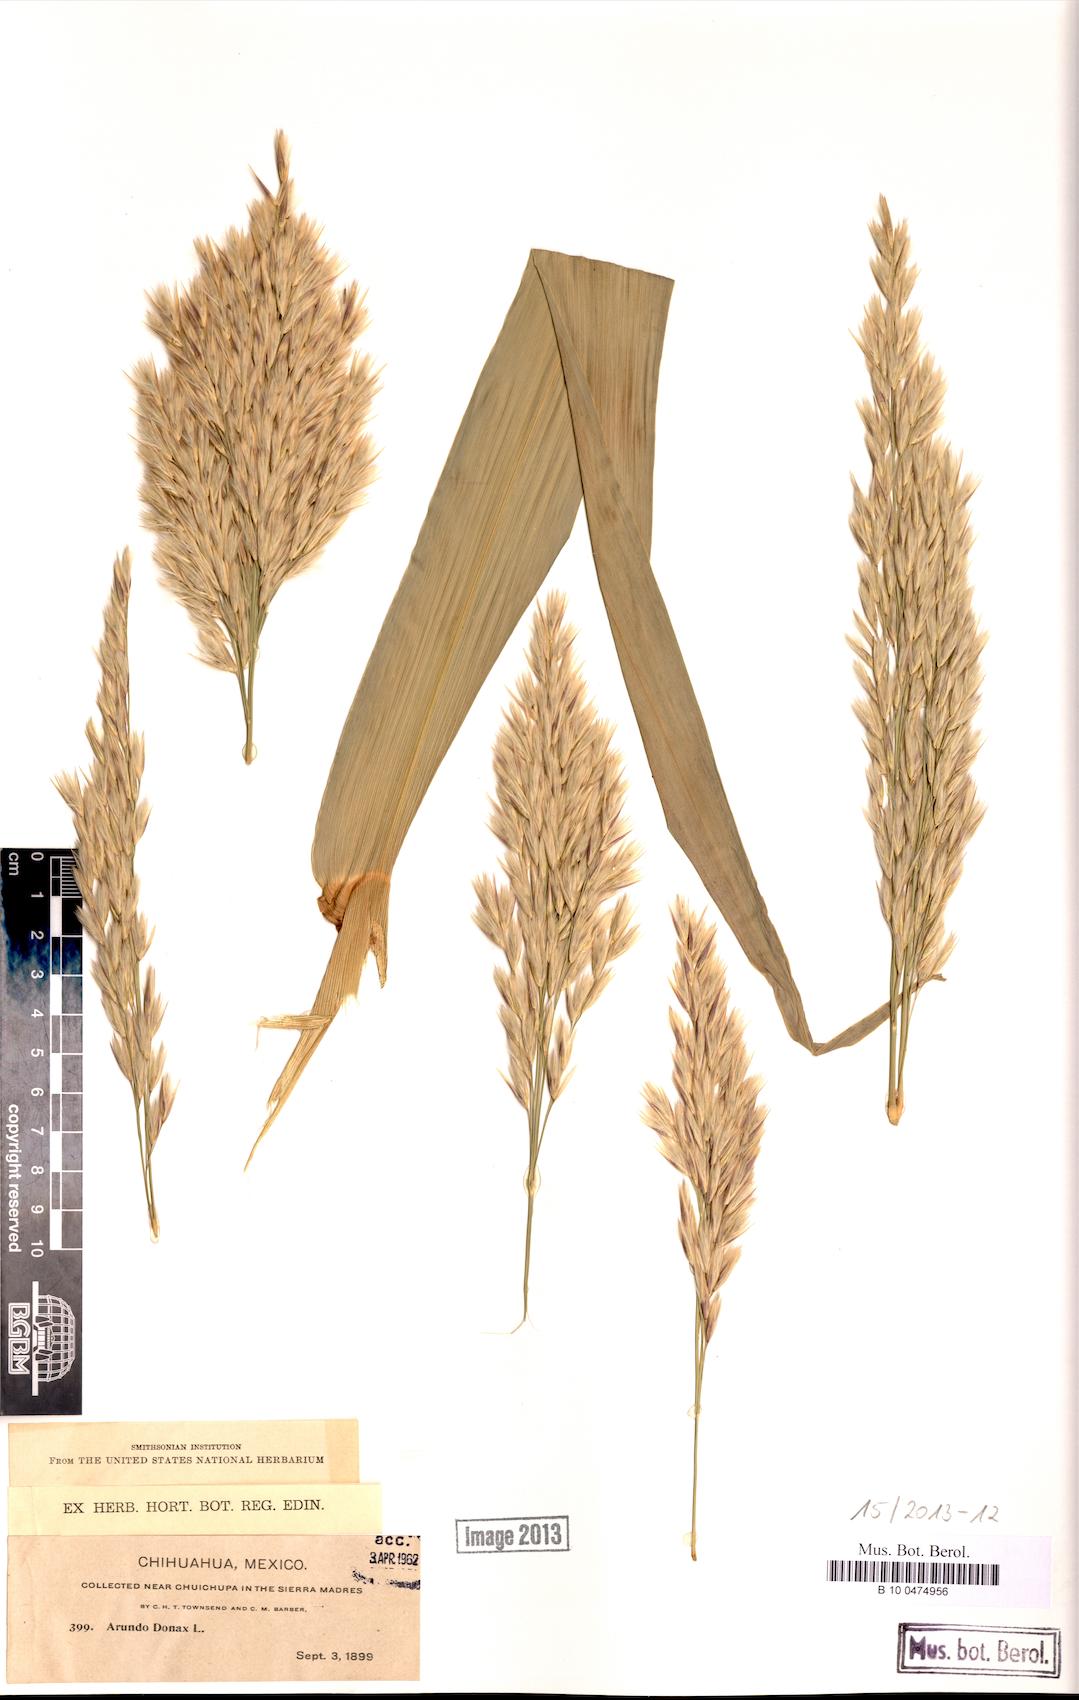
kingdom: Plantae
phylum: Tracheophyta
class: Liliopsida
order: Poales
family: Poaceae
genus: Arundo
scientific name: Arundo donax
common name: Giant reed
